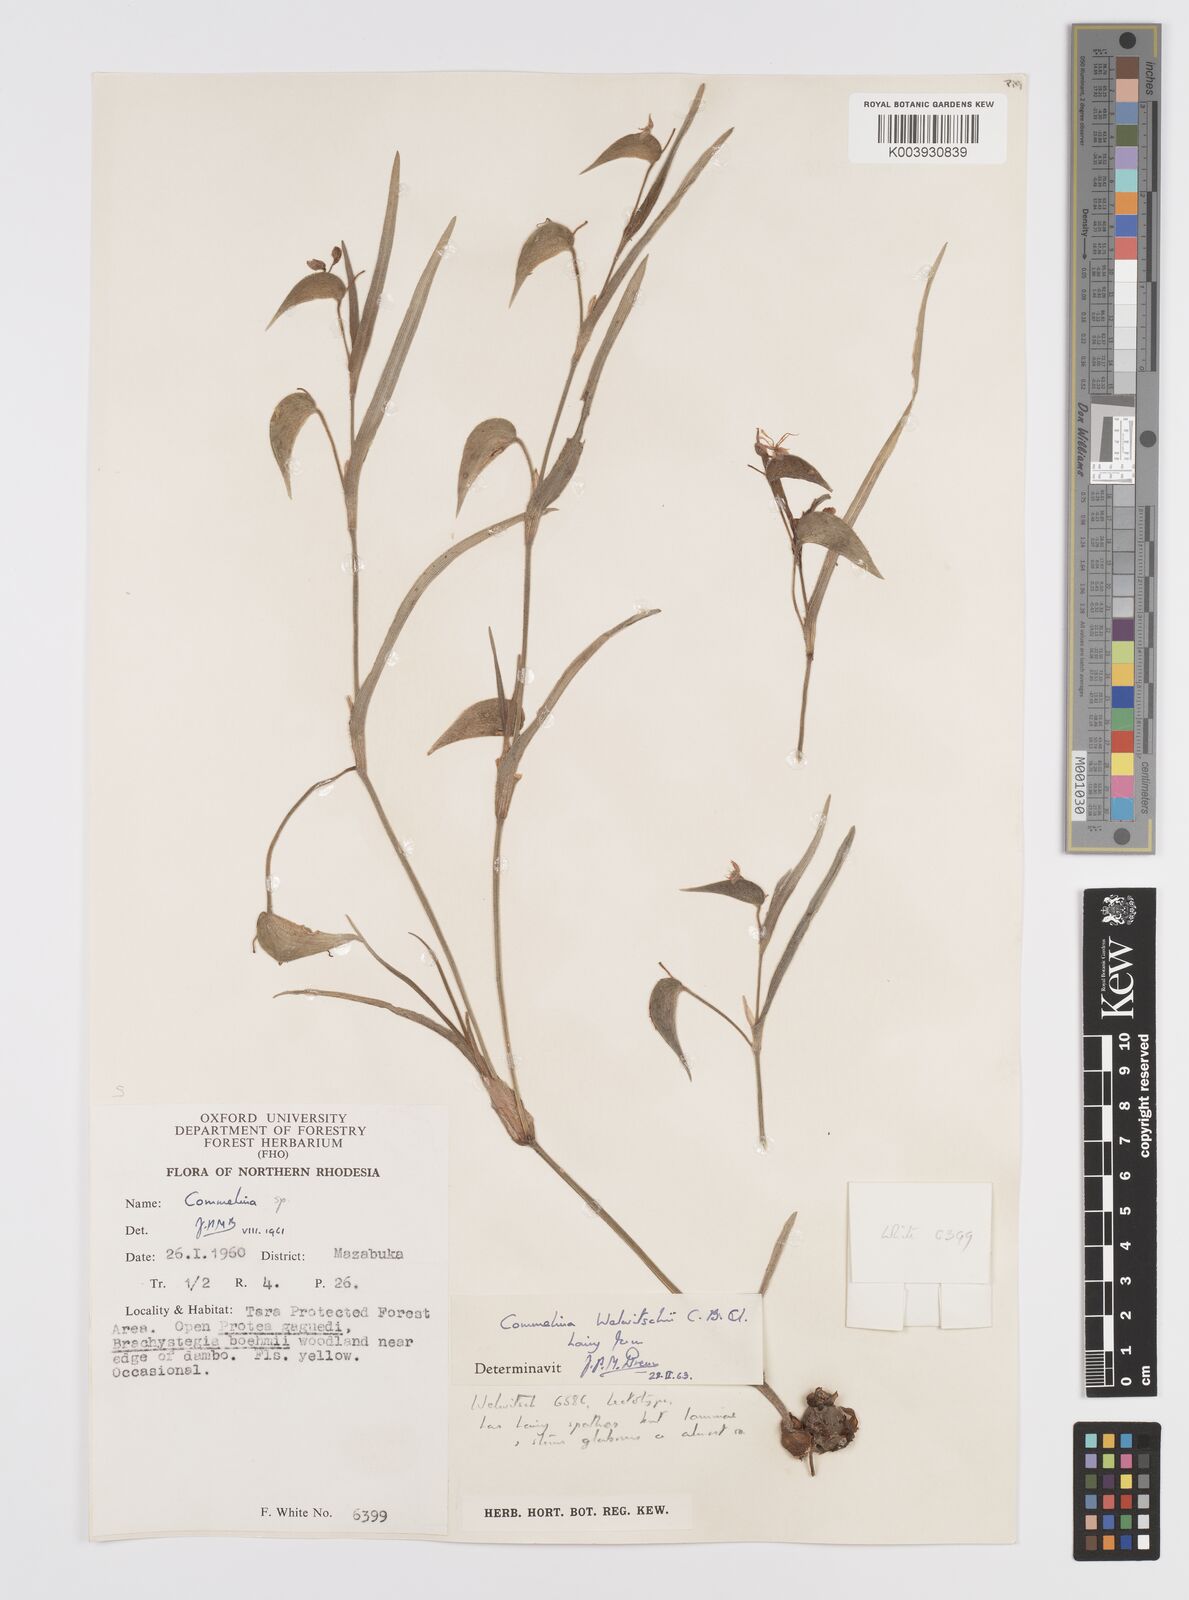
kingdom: Plantae
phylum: Tracheophyta
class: Liliopsida
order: Commelinales
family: Commelinaceae
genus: Commelina
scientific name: Commelina welwitschii
